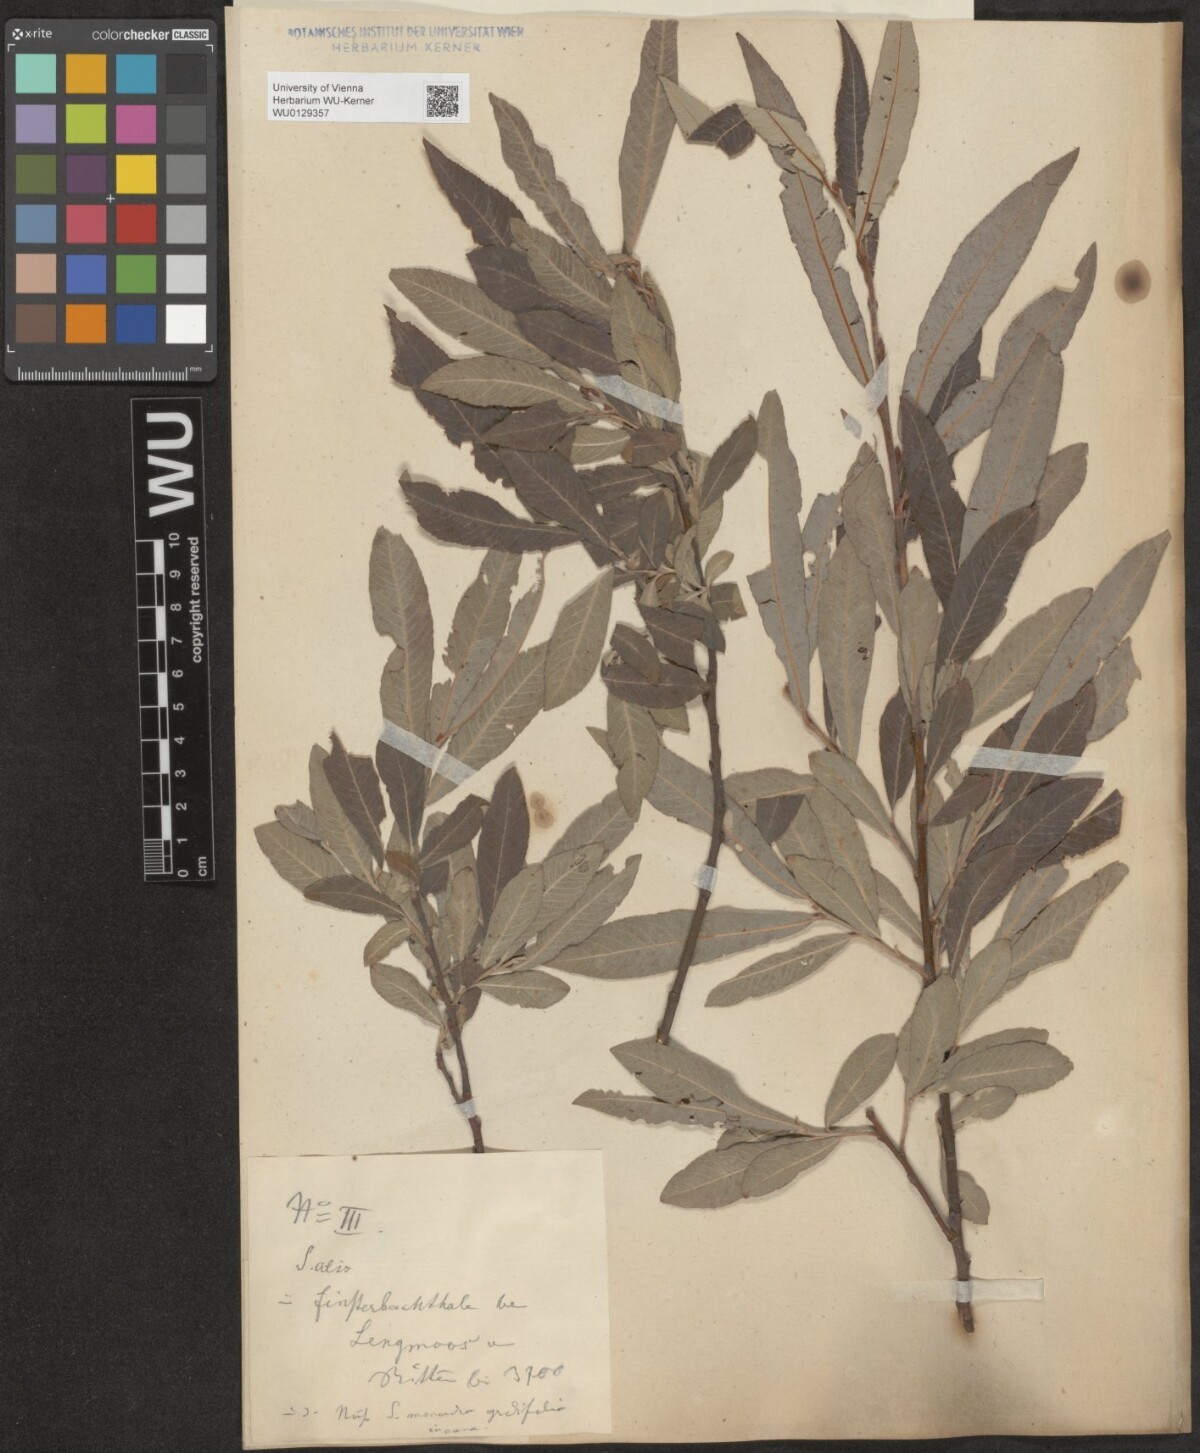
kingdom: Plantae
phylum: Tracheophyta
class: Magnoliopsida
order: Malpighiales
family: Salicaceae
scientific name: Salicaceae
